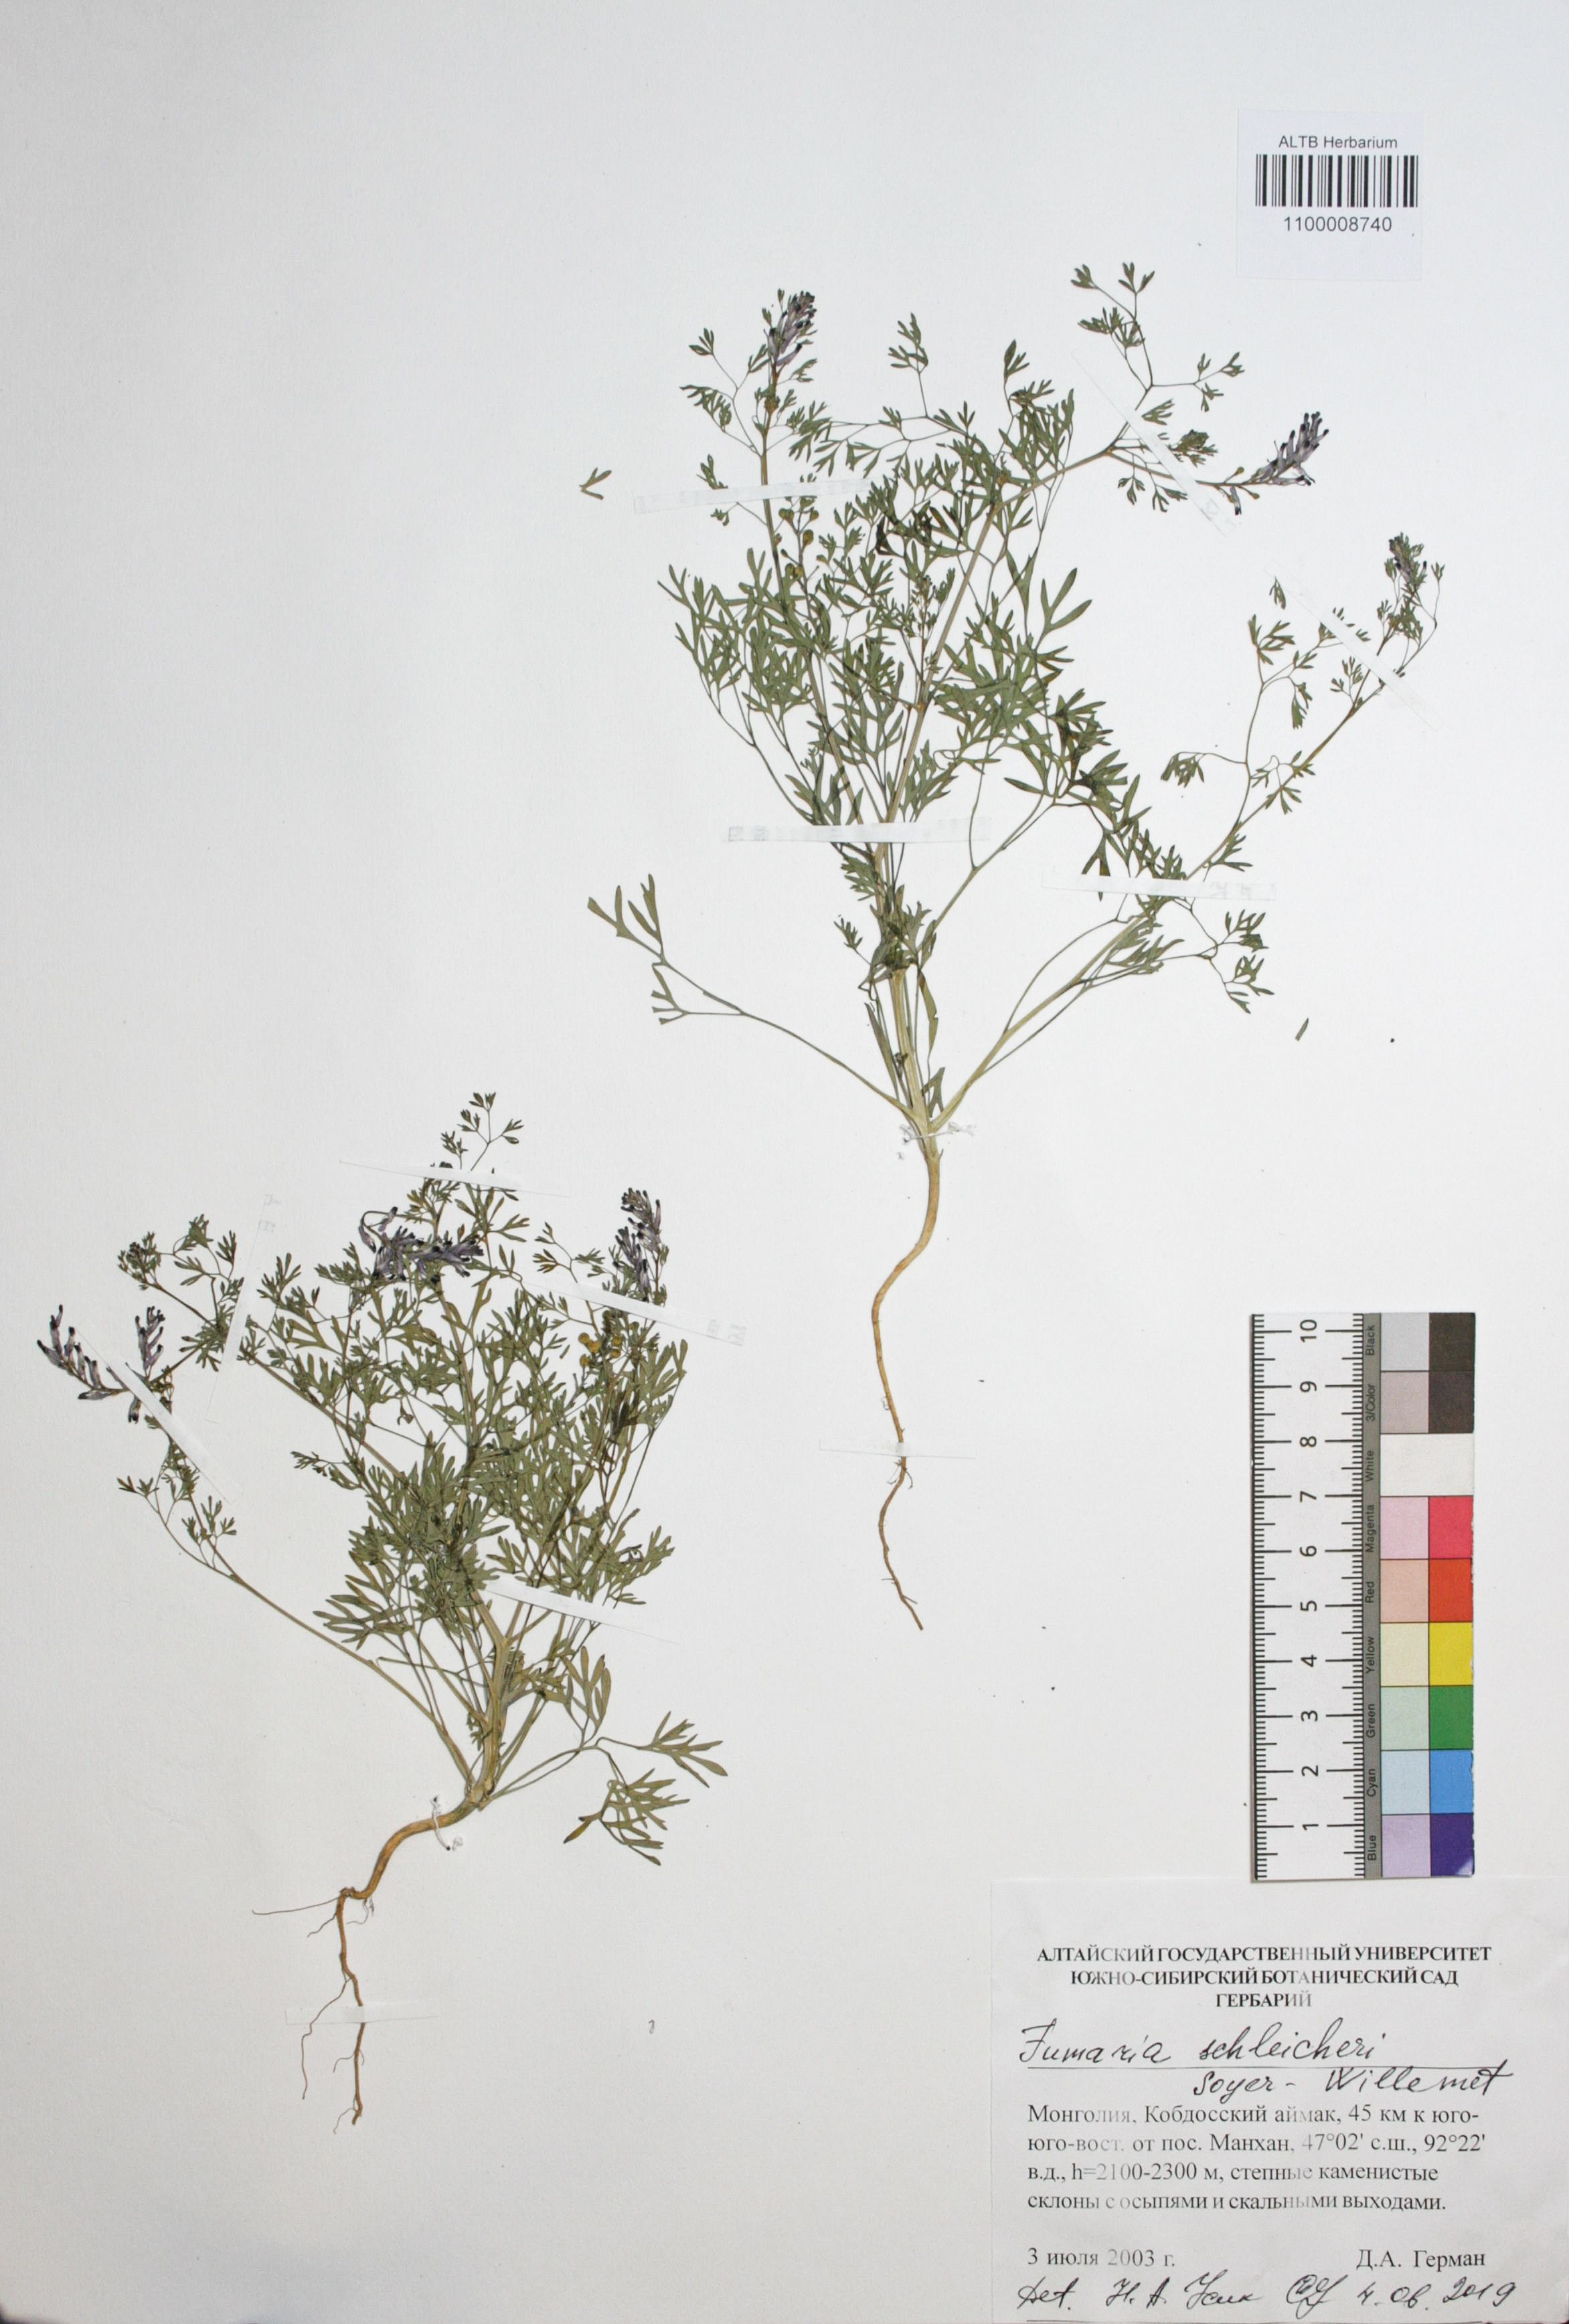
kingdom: Plantae
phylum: Tracheophyta
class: Magnoliopsida
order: Ranunculales
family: Papaveraceae
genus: Fumaria
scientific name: Fumaria schleicheri
